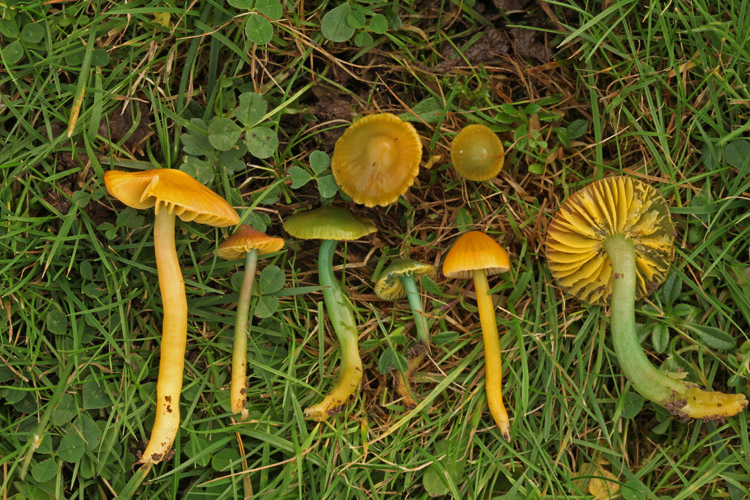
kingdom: Fungi
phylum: Basidiomycota
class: Agaricomycetes
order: Agaricales
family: Hygrophoraceae
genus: Gliophorus
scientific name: Gliophorus psittacinus
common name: papegøje-vokshat
